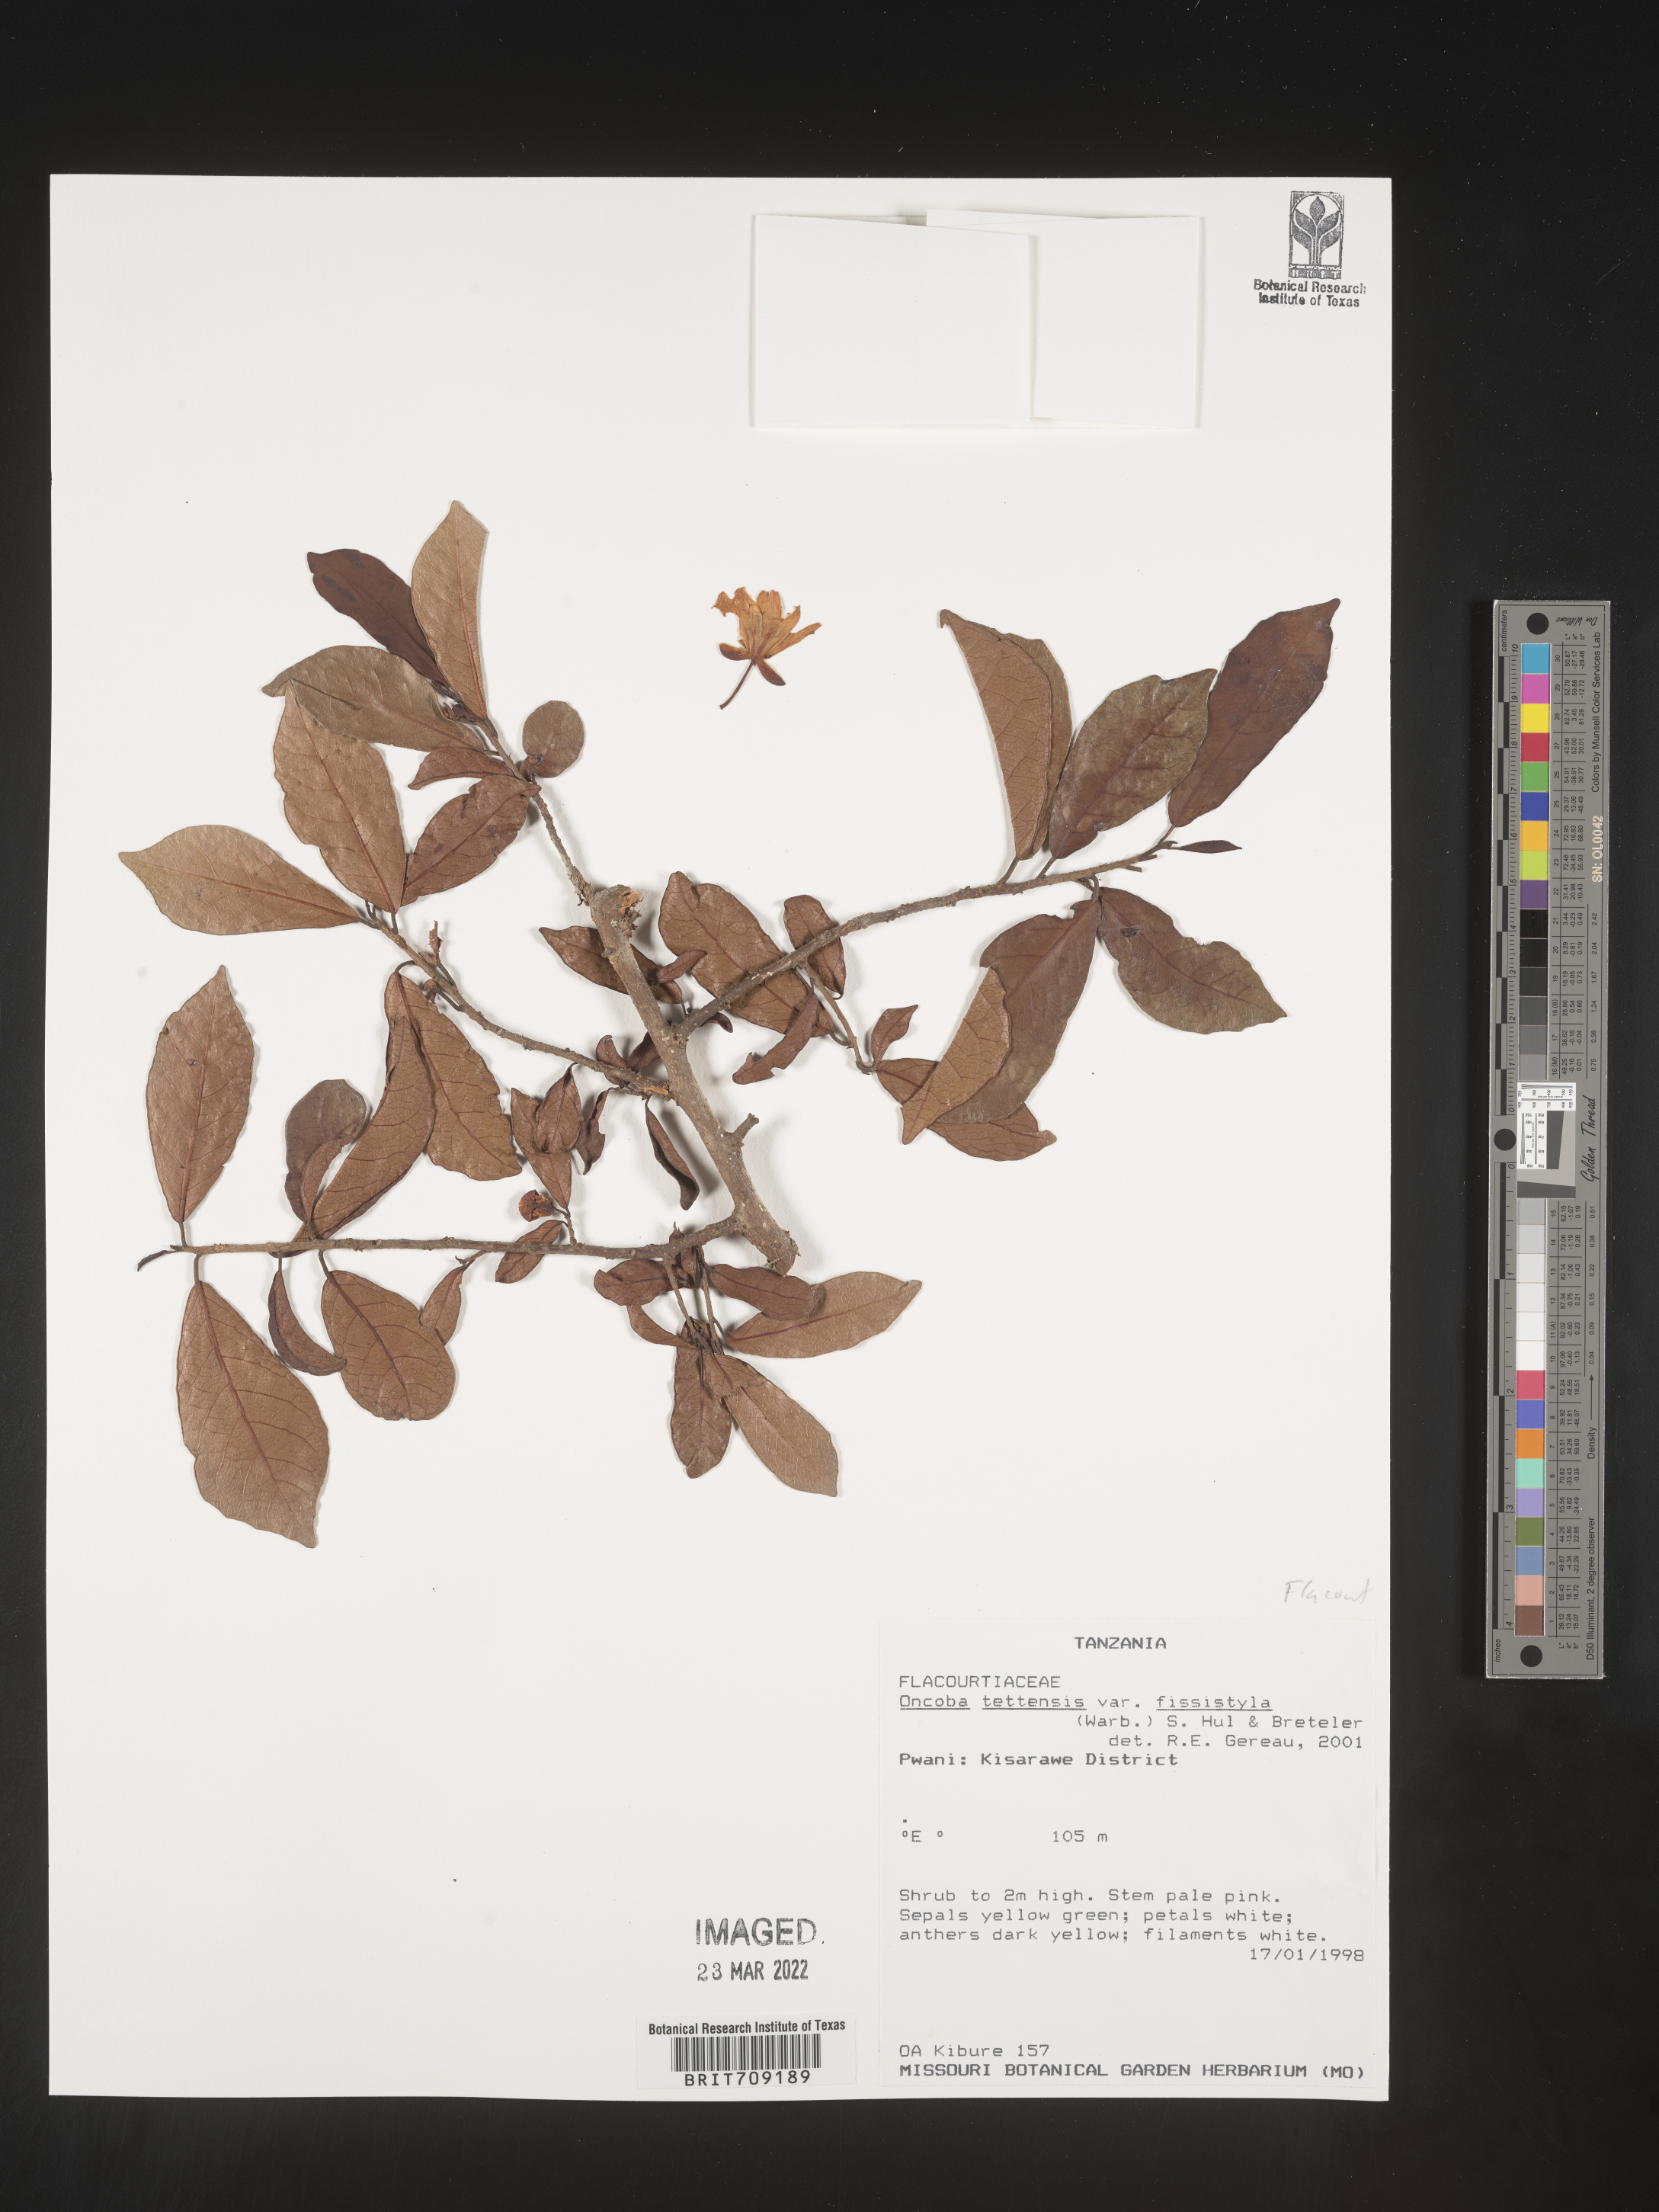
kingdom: Plantae
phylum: Tracheophyta
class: Magnoliopsida
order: Malpighiales
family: Salicaceae
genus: Oncoba
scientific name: Oncoba
